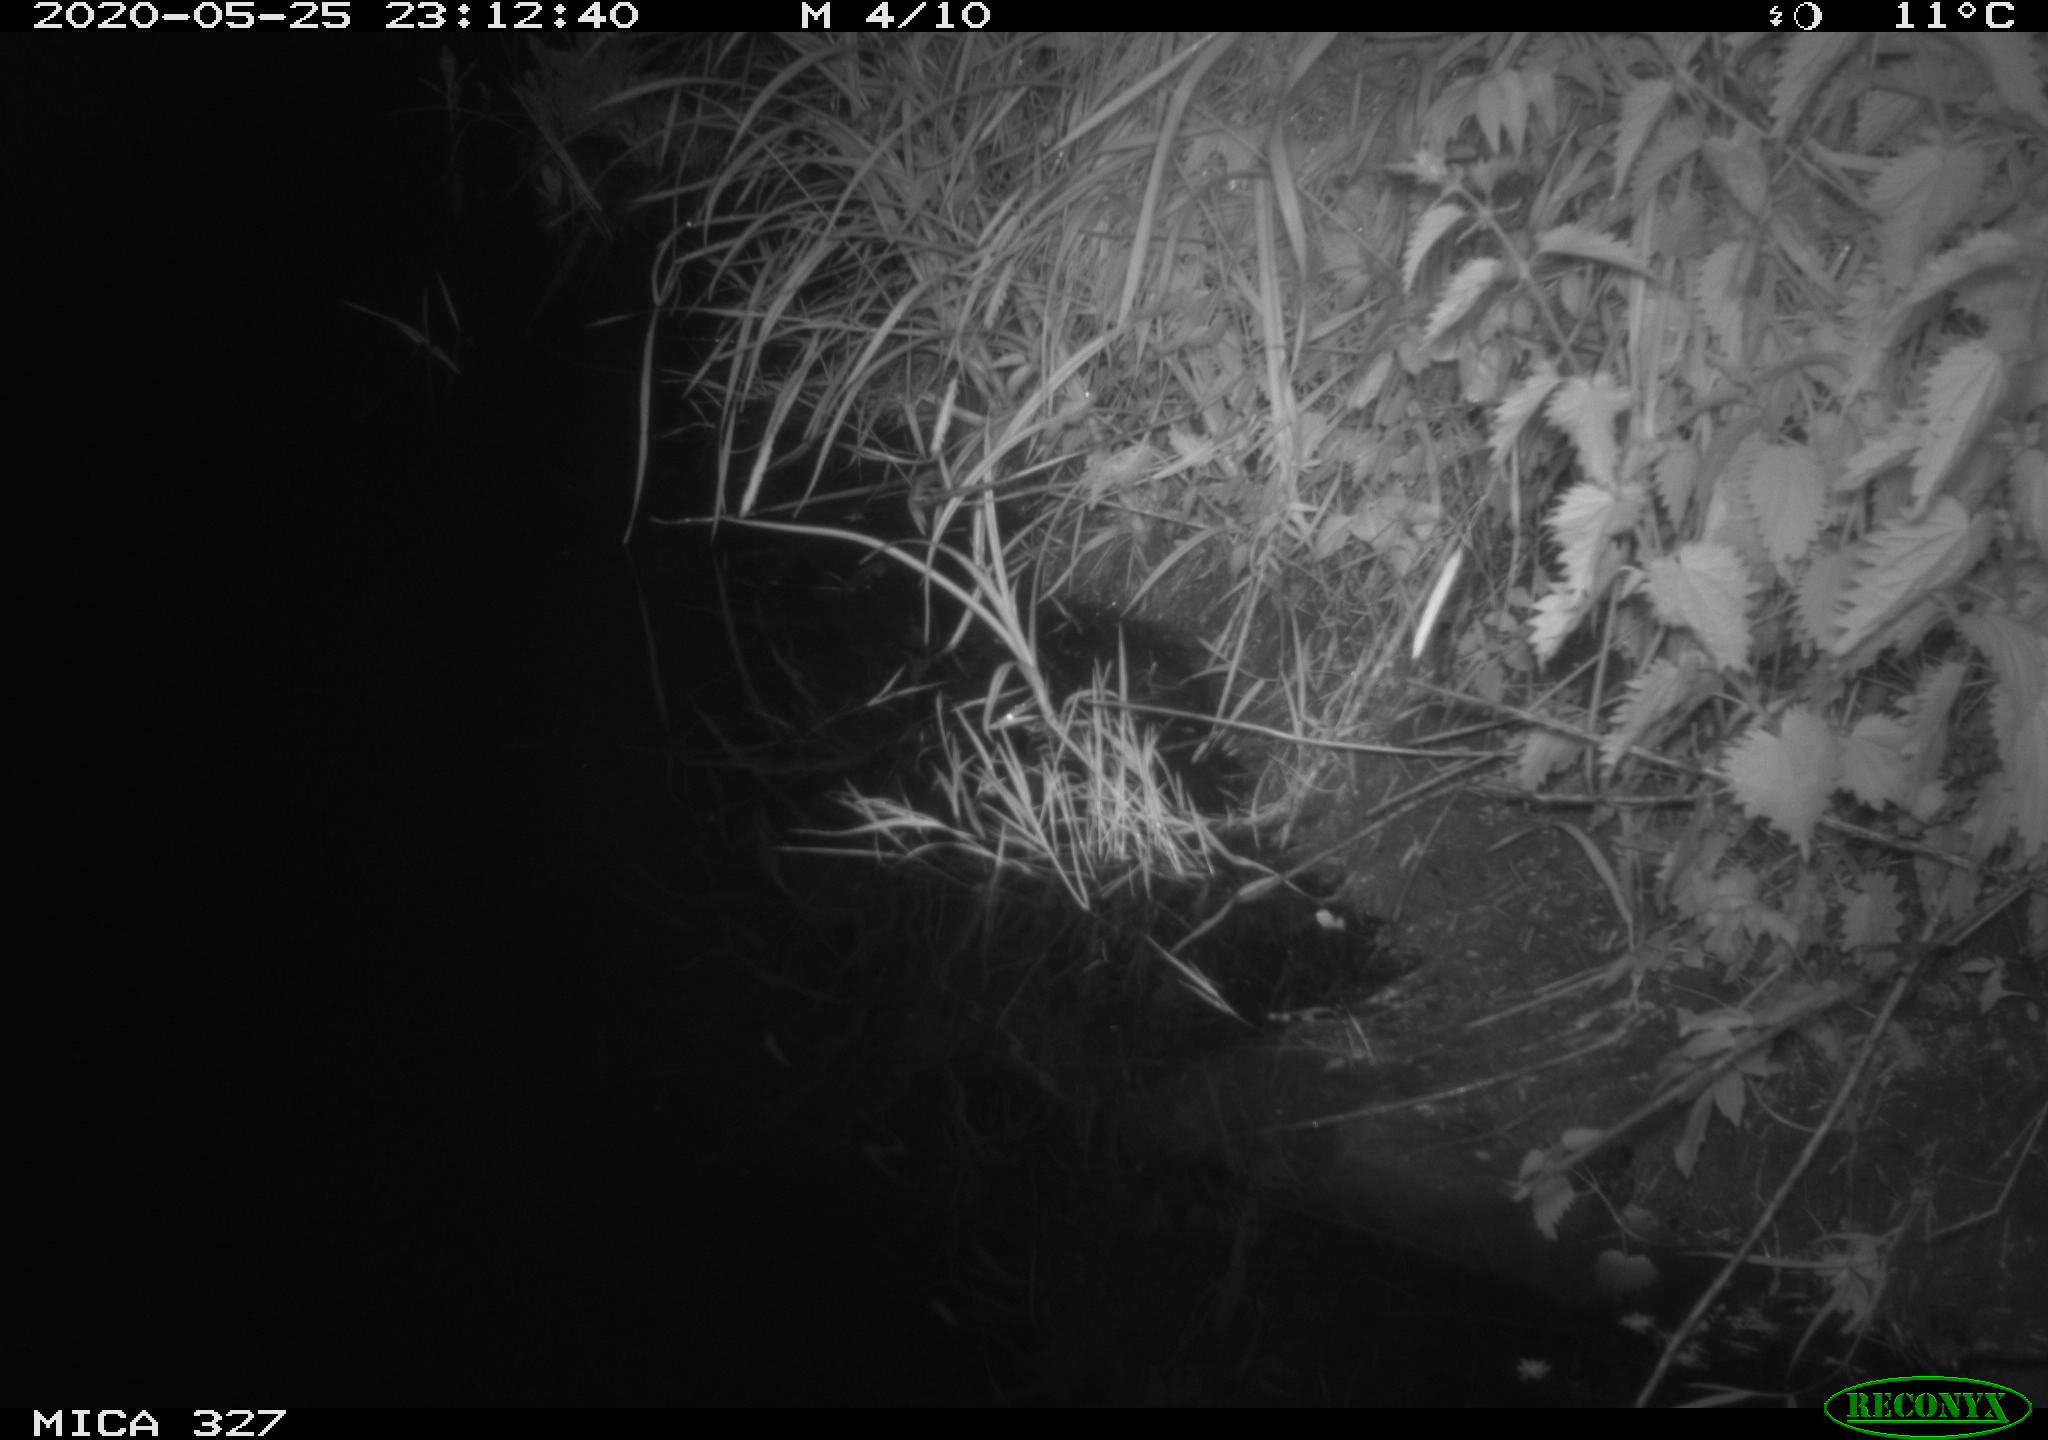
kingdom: Animalia
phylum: Chordata
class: Mammalia
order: Rodentia
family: Muridae
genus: Rattus
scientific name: Rattus norvegicus
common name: Brown rat
